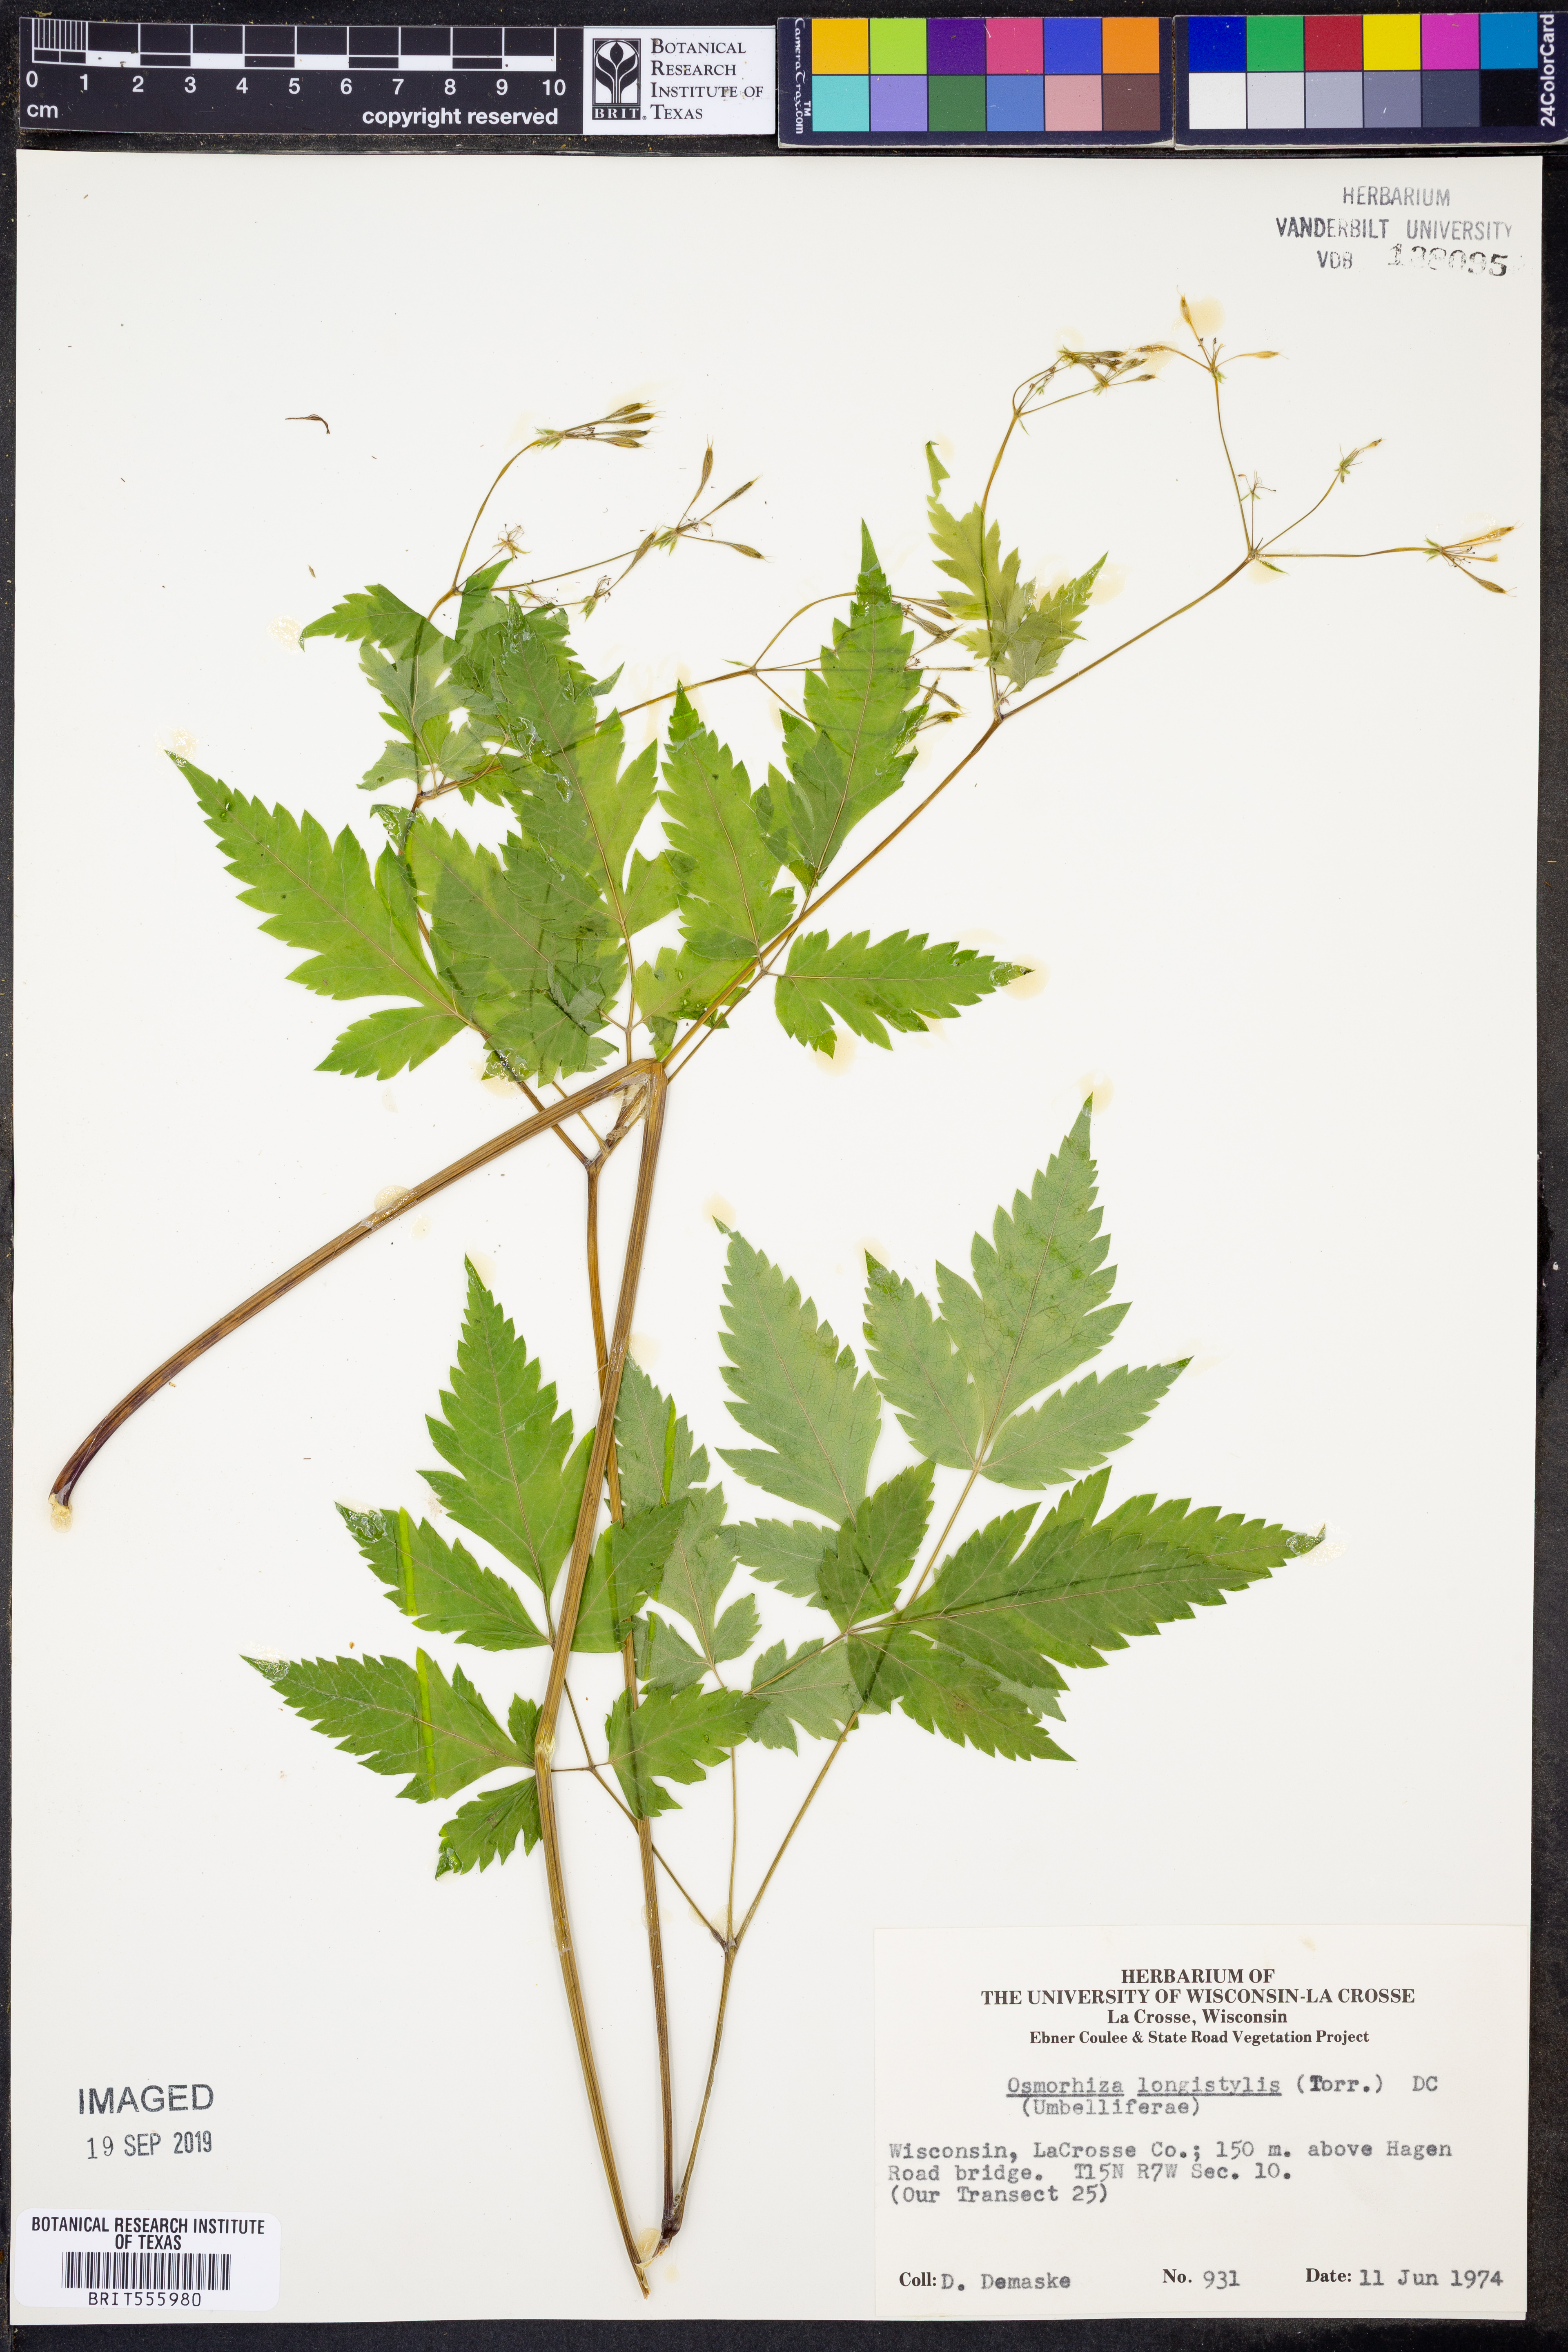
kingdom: Plantae
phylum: Tracheophyta
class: Magnoliopsida
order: Apiales
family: Apiaceae
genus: Osmorhiza
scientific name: Osmorhiza longistylis
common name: Smooth sweet cicely
